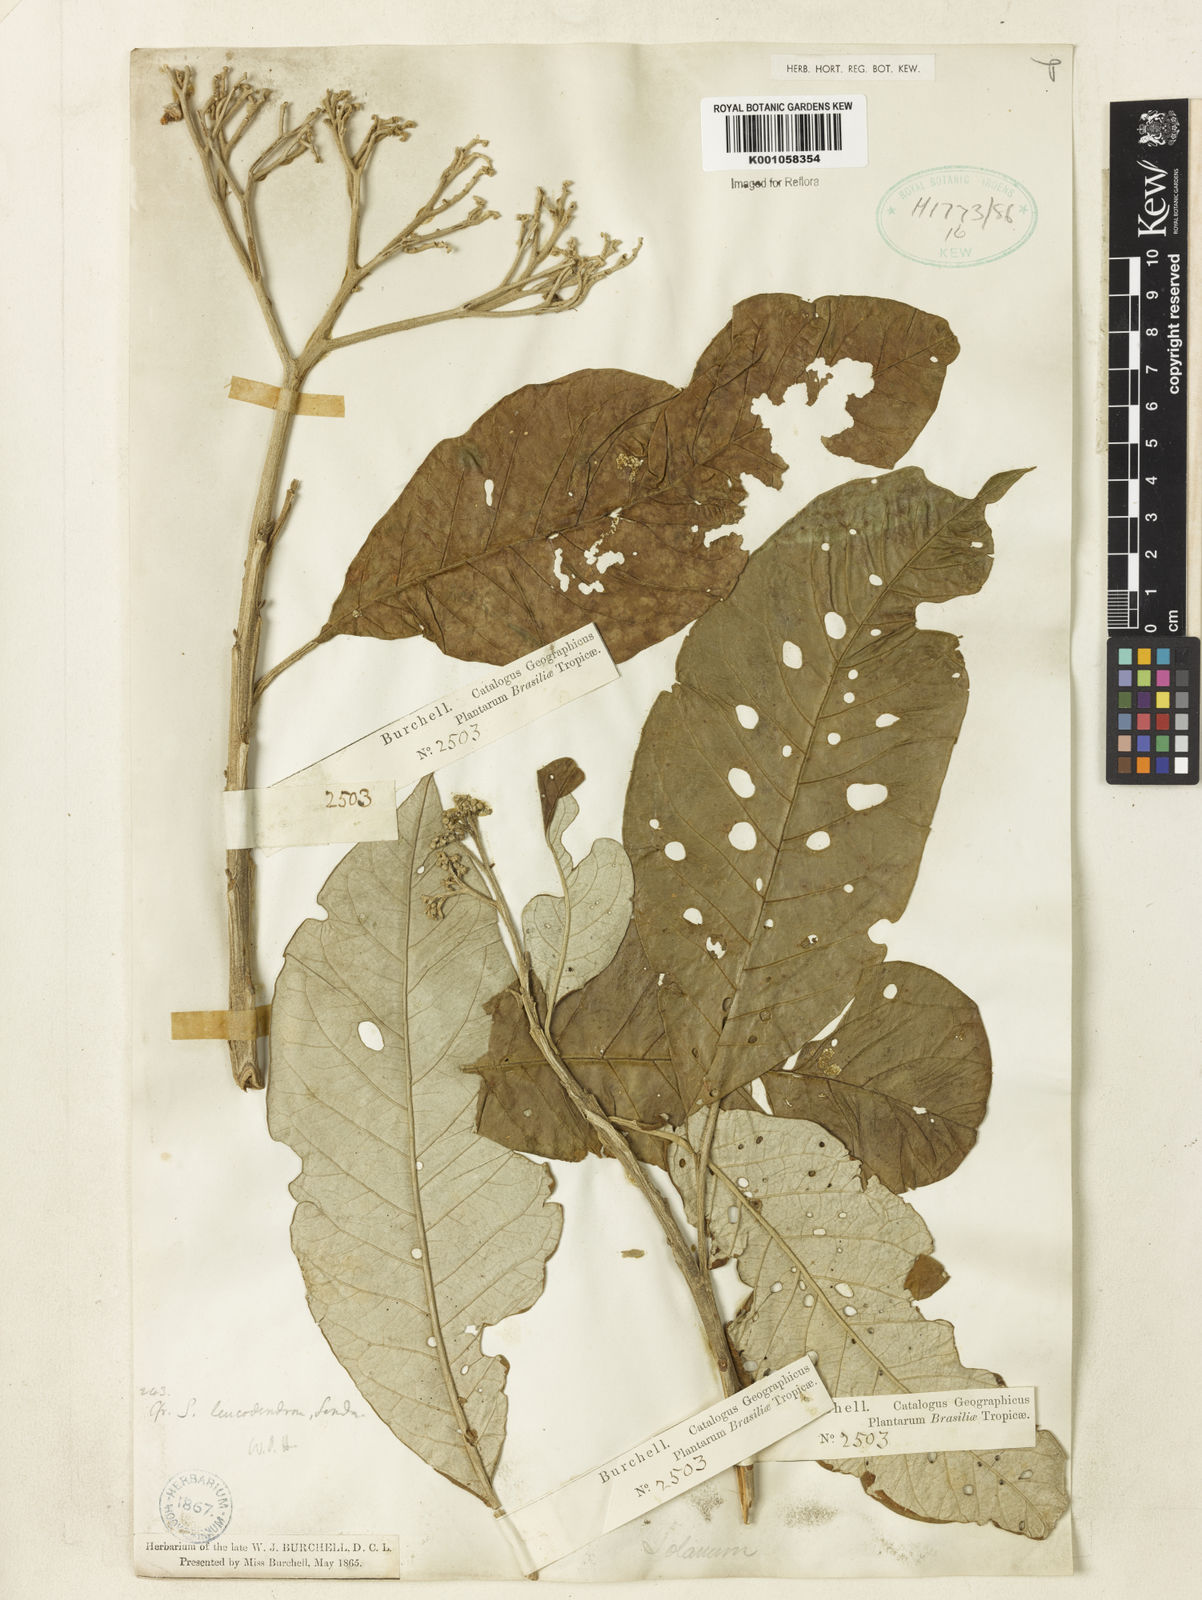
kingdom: Plantae
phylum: Tracheophyta
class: Magnoliopsida
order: Solanales
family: Solanaceae
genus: Solanum
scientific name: Solanum leucodendron
